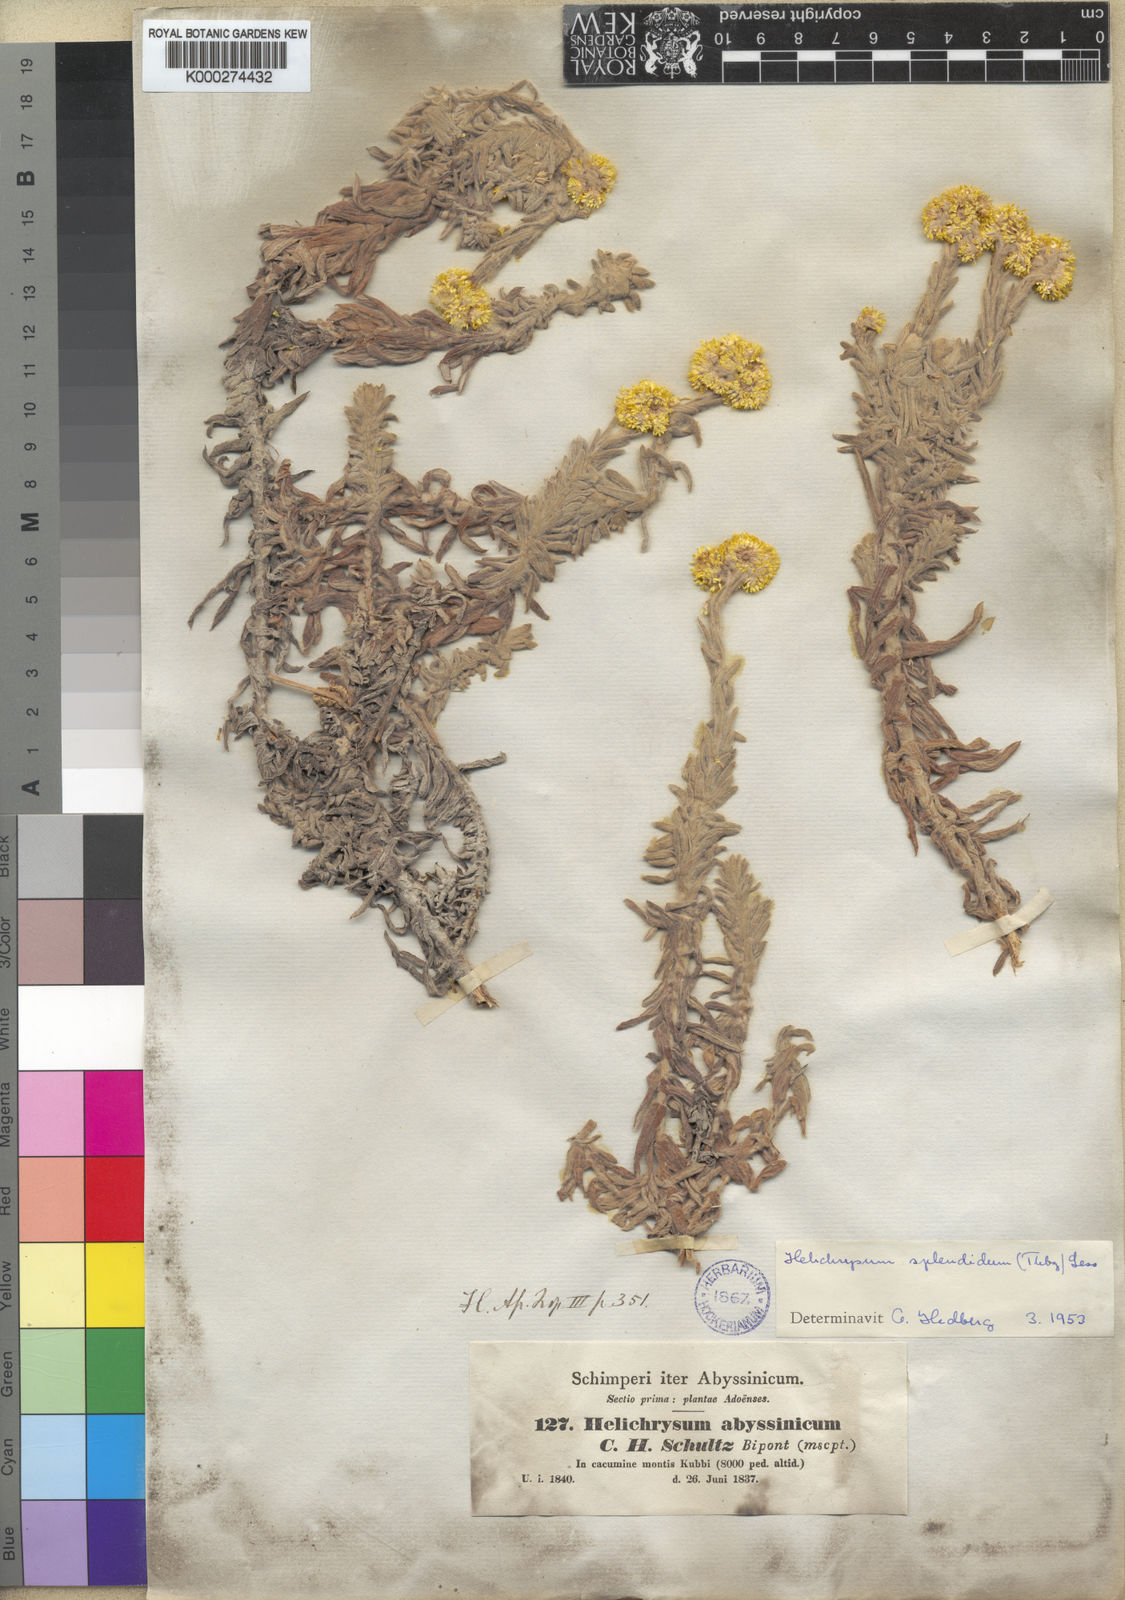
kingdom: Plantae
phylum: Tracheophyta
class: Magnoliopsida
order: Asterales
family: Asteraceae
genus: Helichrysum
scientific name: Helichrysum splendidum
